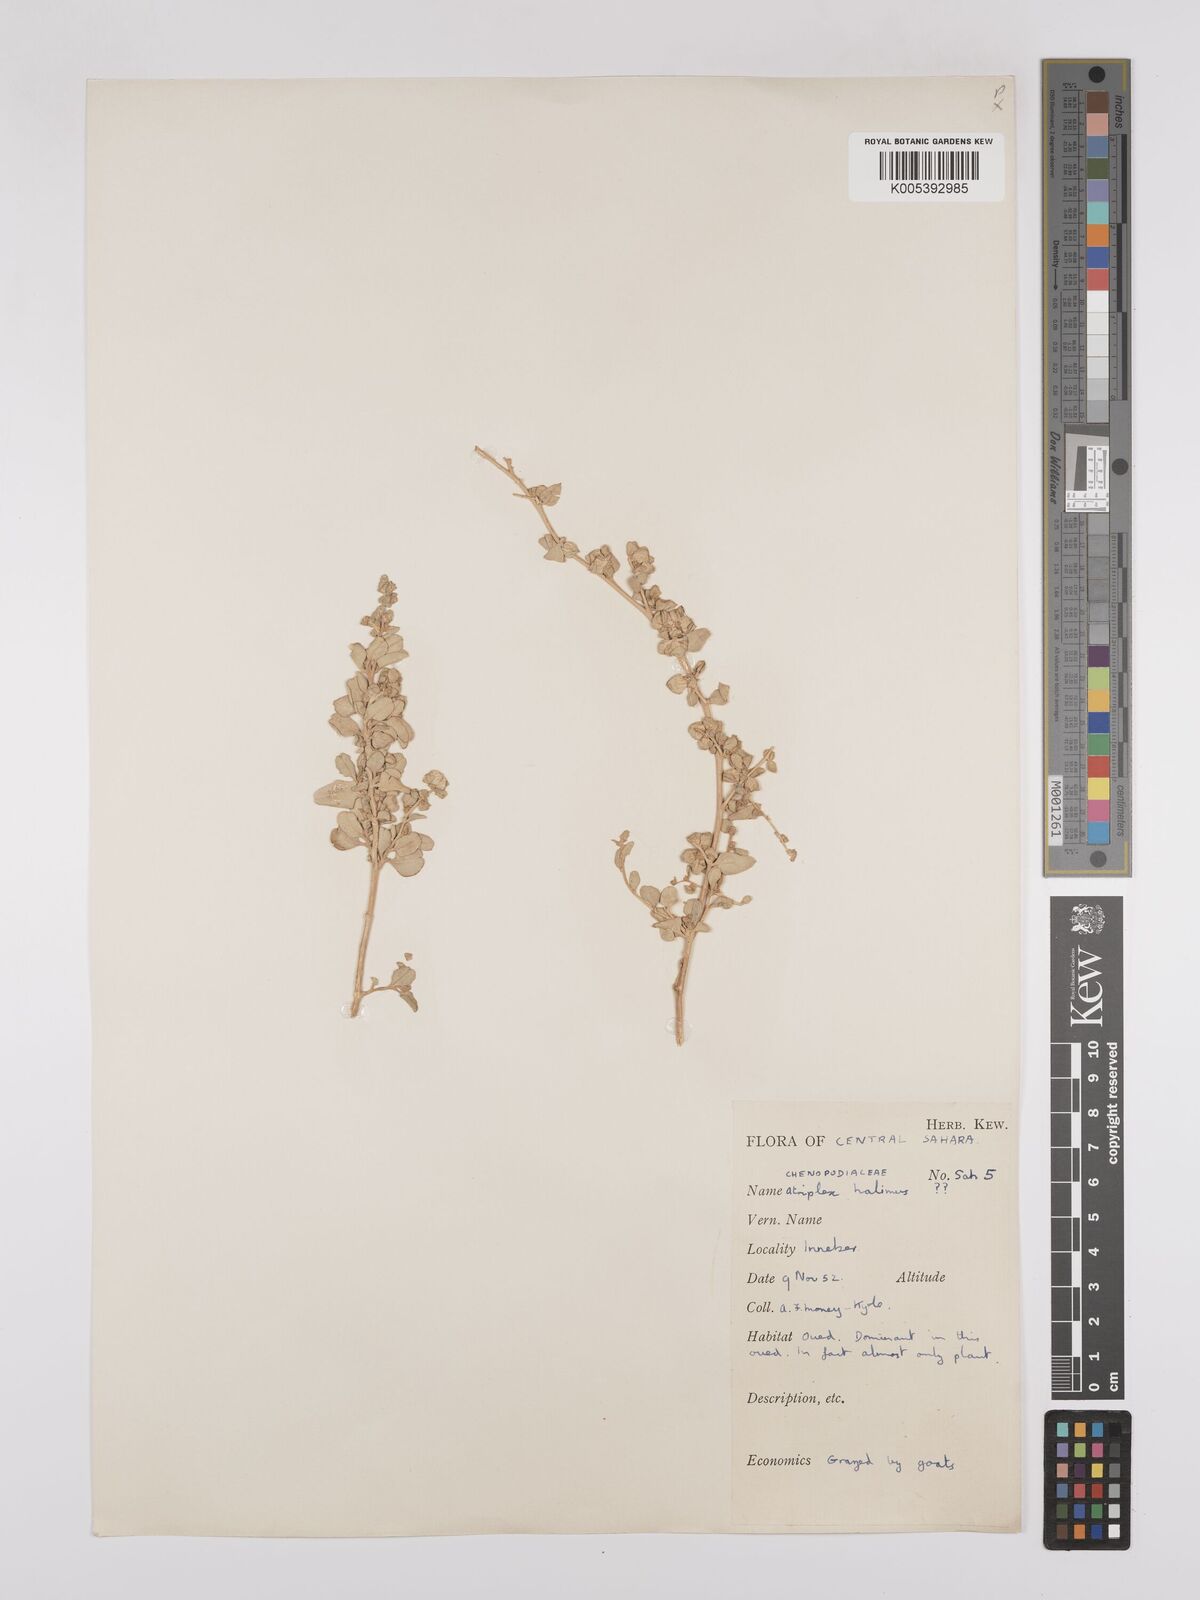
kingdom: Plantae
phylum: Tracheophyta
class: Magnoliopsida
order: Caryophyllales
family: Amaranthaceae
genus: Atriplex
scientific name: Atriplex
